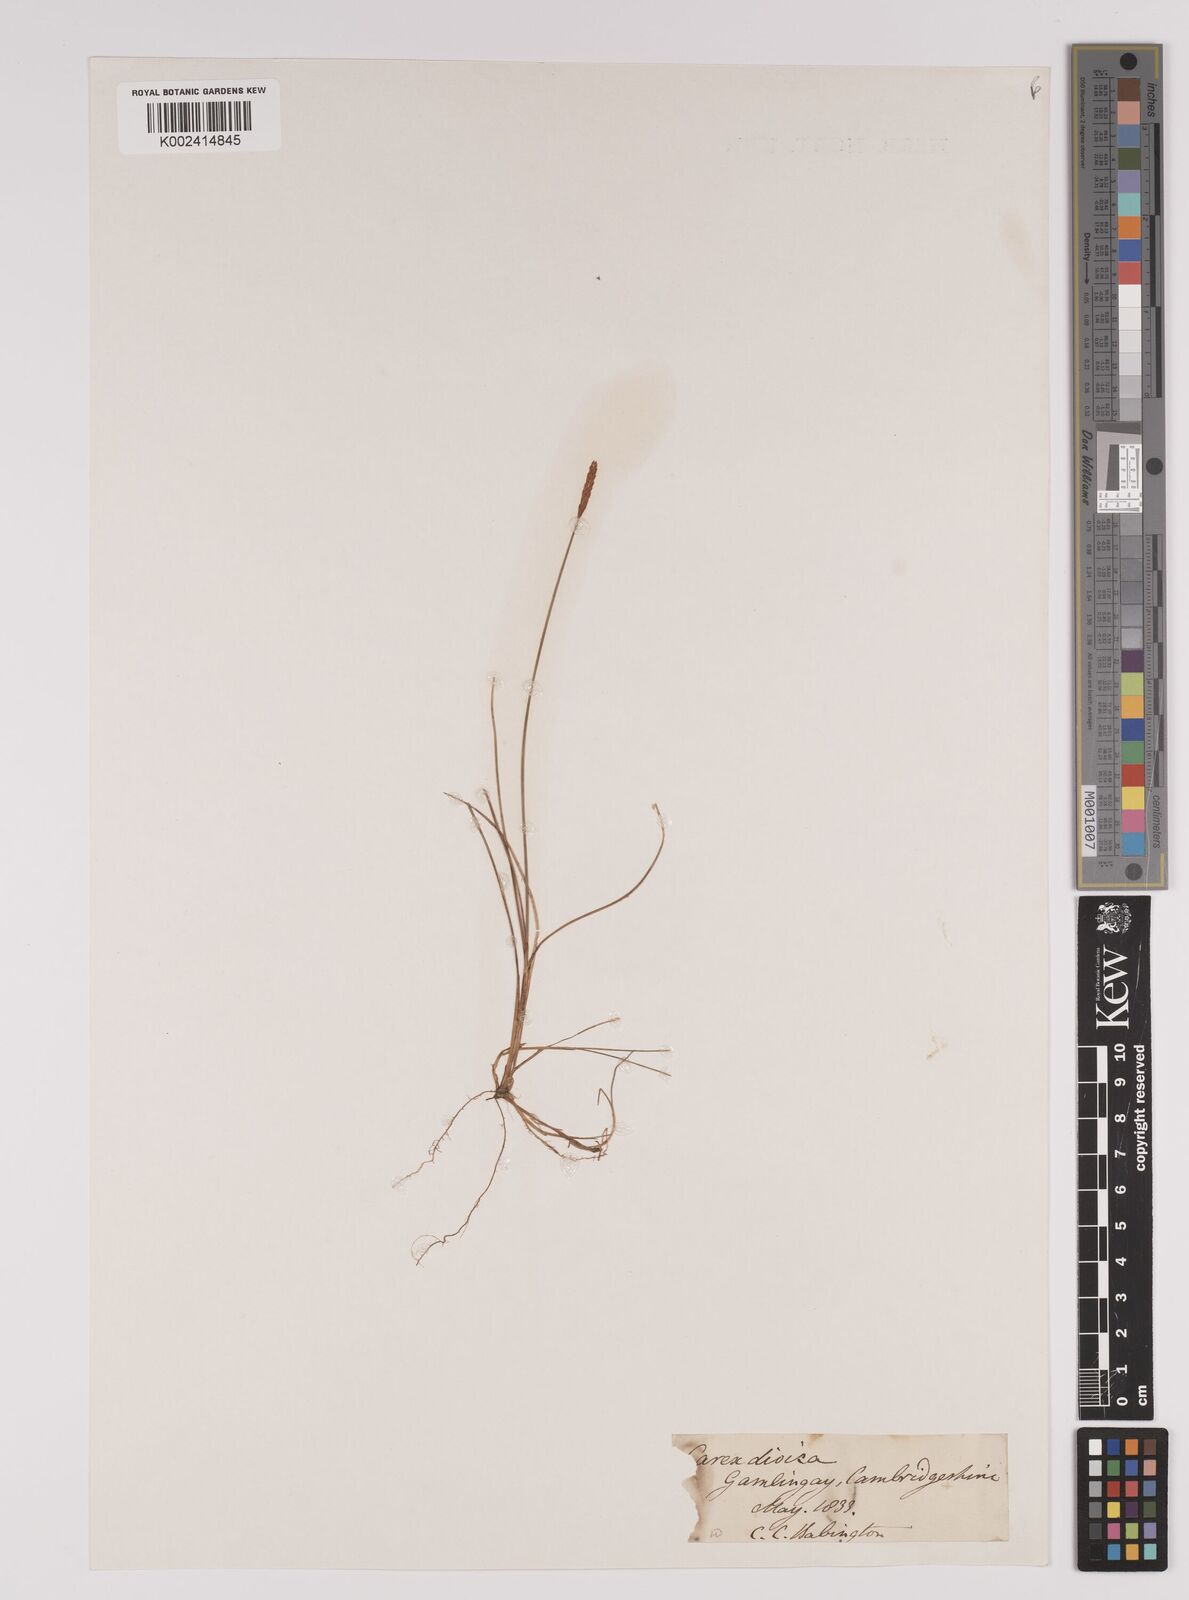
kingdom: Plantae
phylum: Tracheophyta
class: Liliopsida
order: Poales
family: Cyperaceae
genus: Carex
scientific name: Carex dioica
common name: Dioecious sedge
